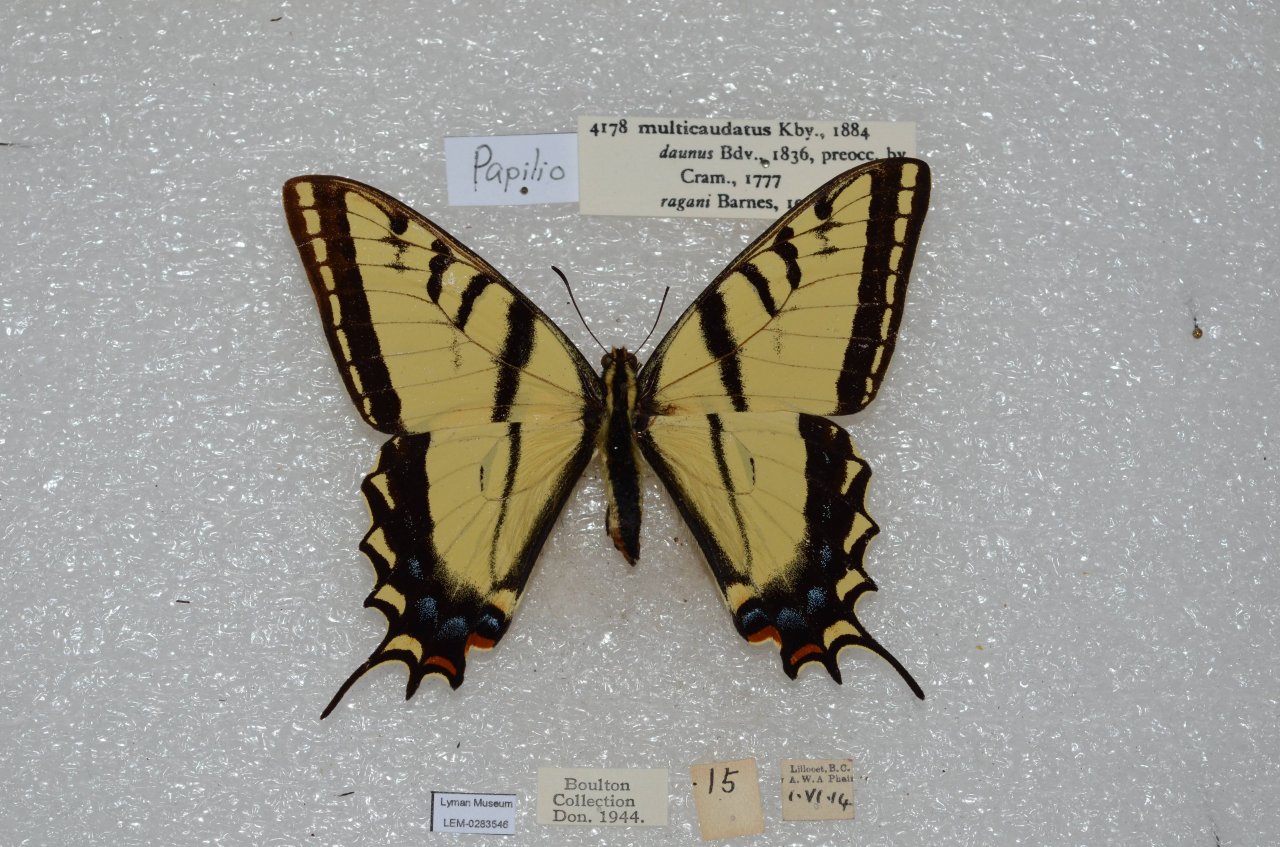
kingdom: Animalia
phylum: Arthropoda
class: Insecta
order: Lepidoptera
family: Papilionidae
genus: Papilio
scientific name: Papilio multicaudata
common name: Two-tailed Swallowtail
